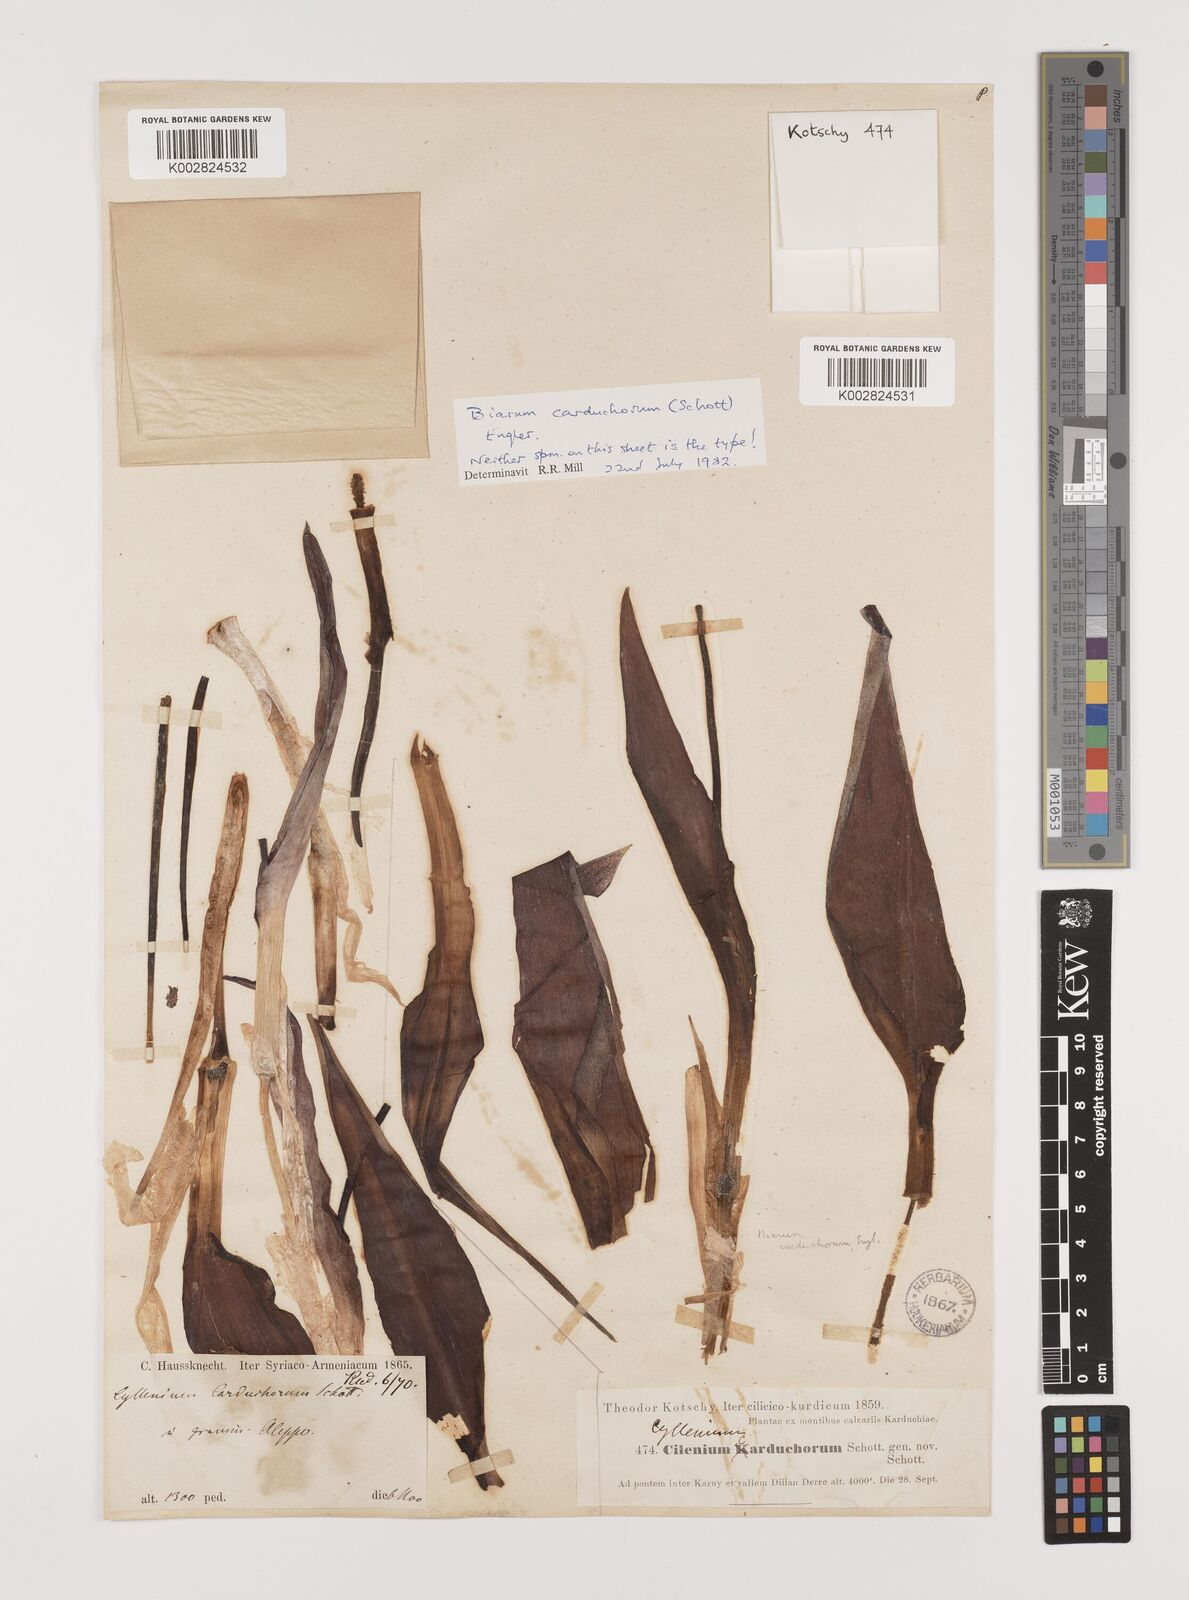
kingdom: Plantae
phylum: Tracheophyta
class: Liliopsida
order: Alismatales
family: Araceae
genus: Biarum
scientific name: Biarum carduchorum
